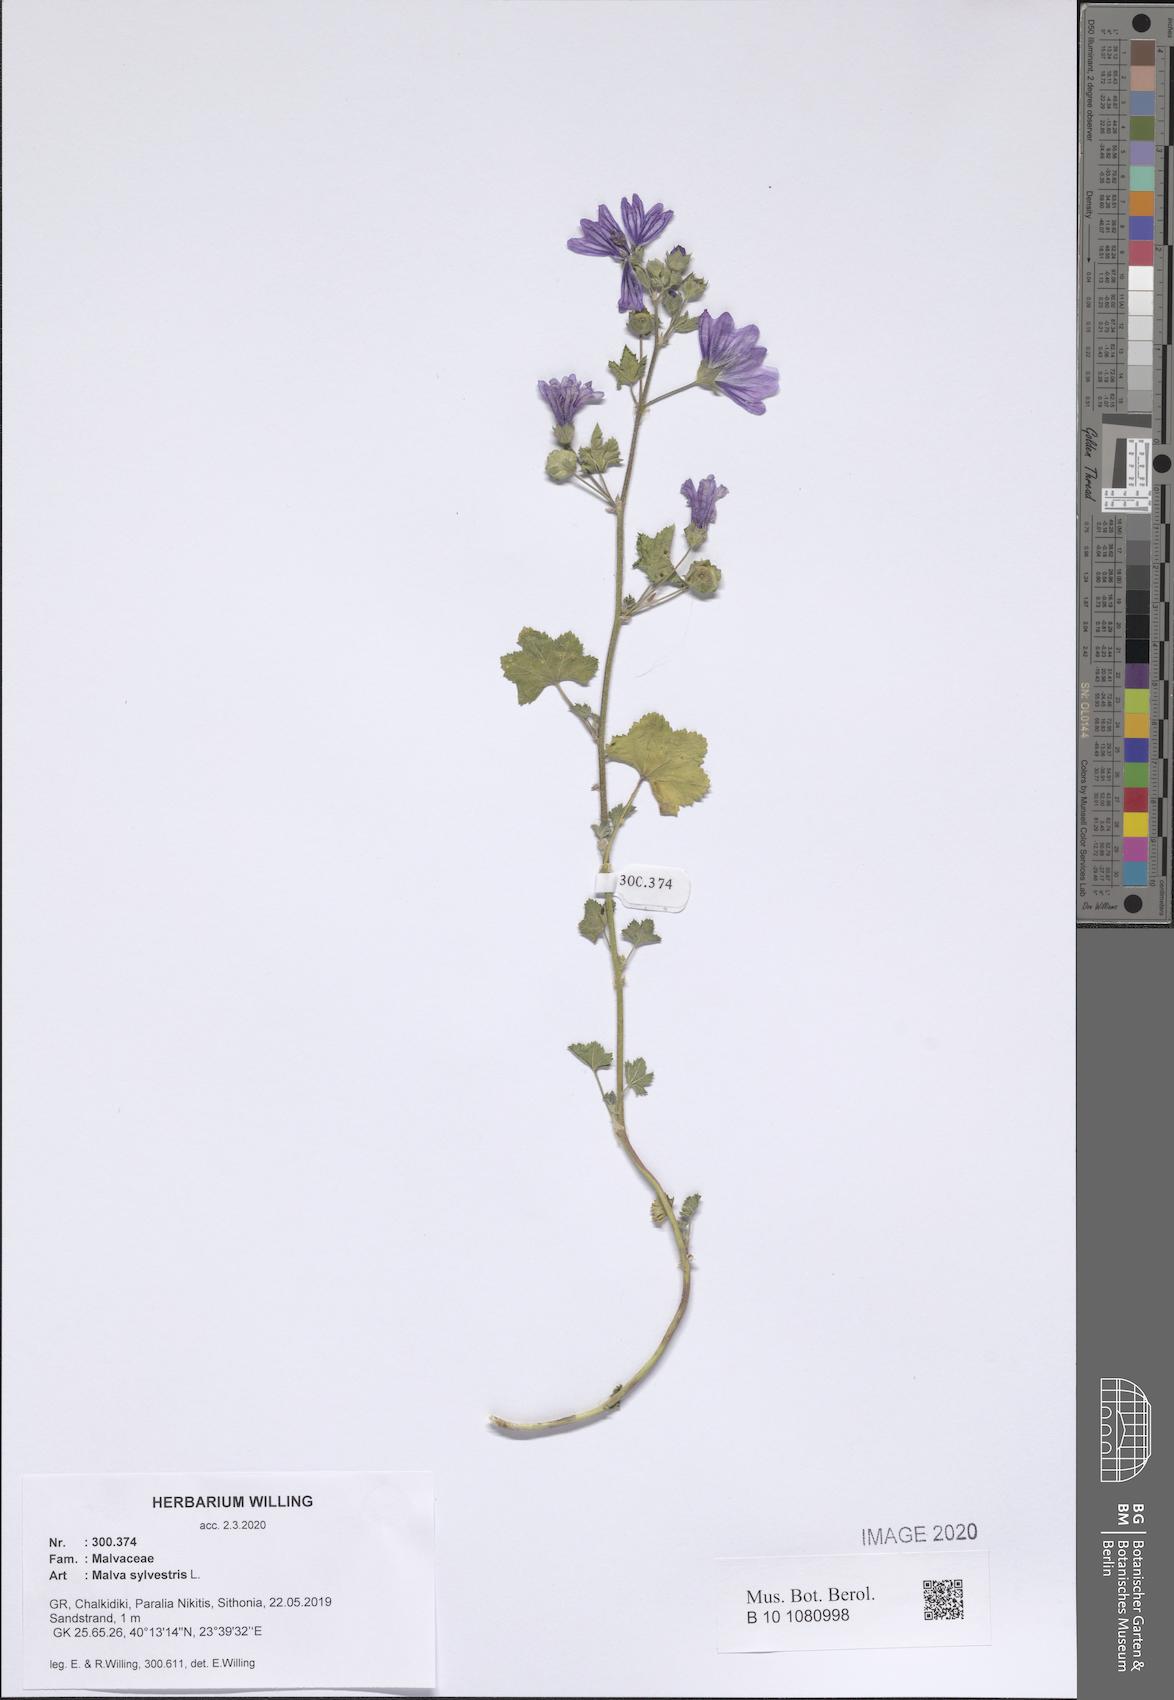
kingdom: Plantae
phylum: Tracheophyta
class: Magnoliopsida
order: Malvales
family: Malvaceae
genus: Malva
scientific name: Malva sylvestris
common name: Common mallow
